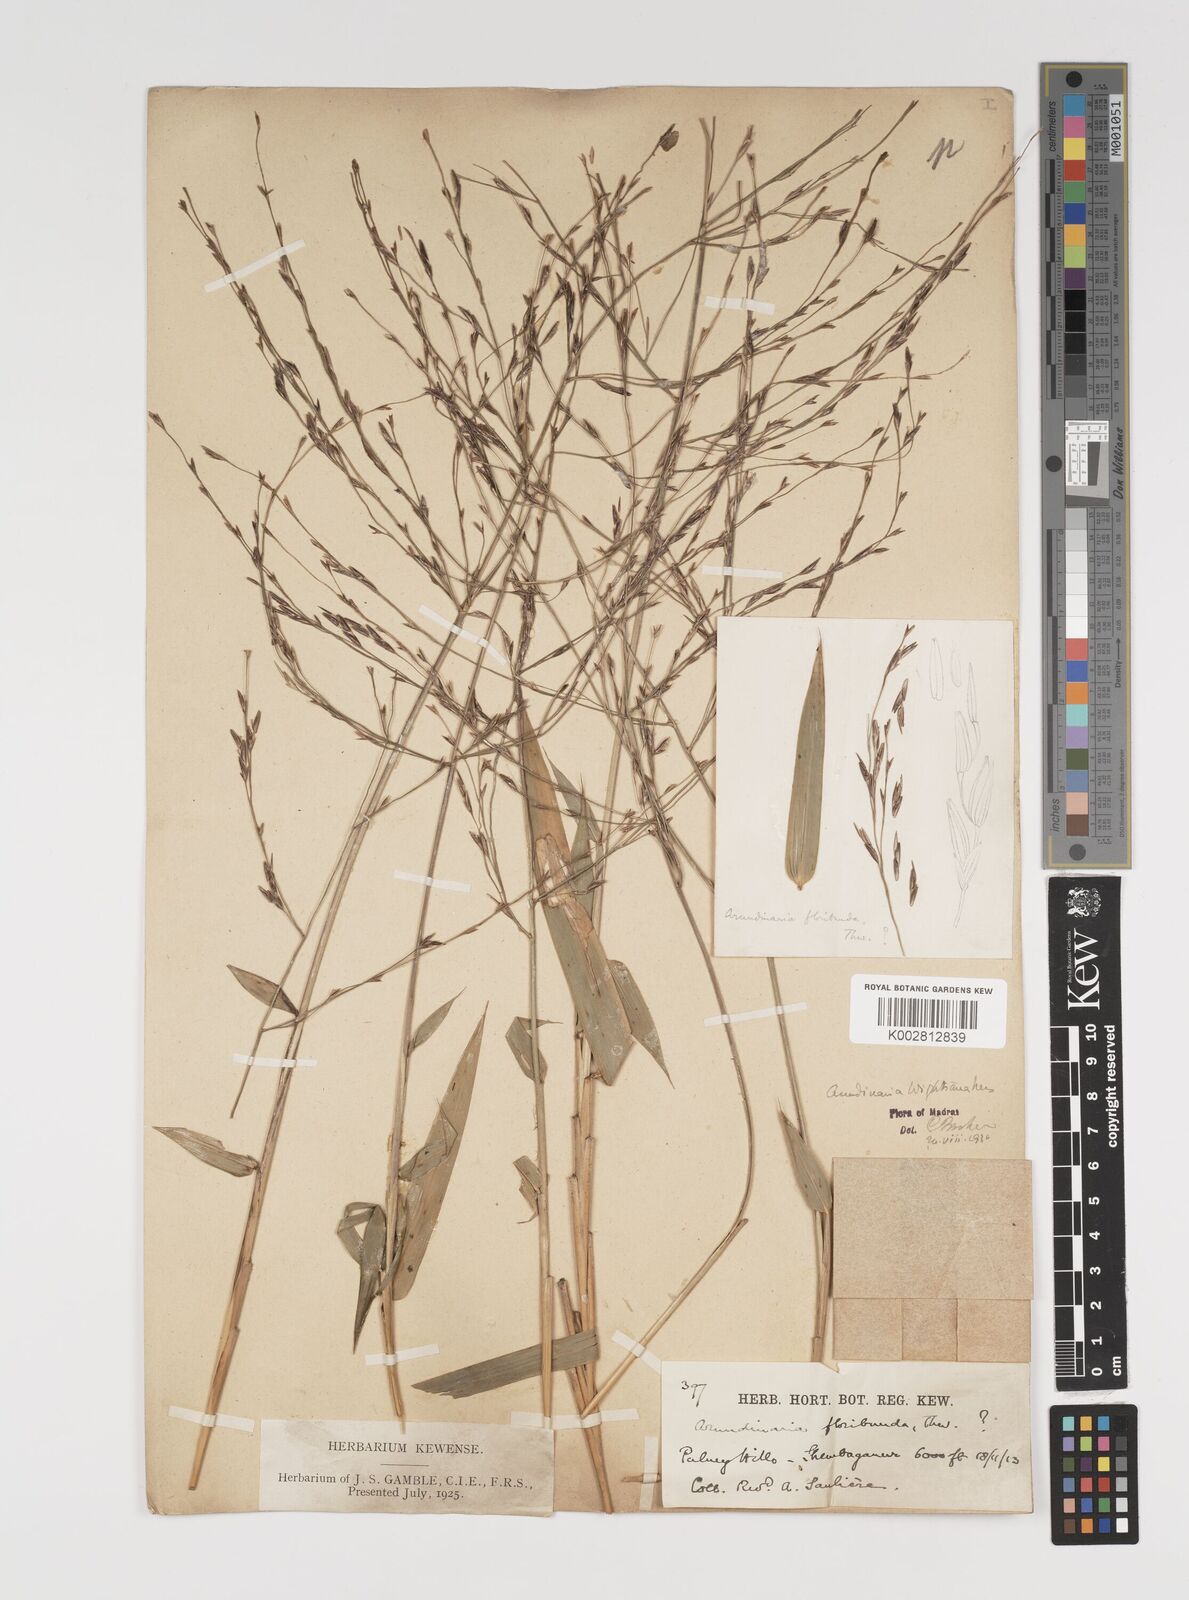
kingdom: Plantae
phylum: Tracheophyta
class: Liliopsida
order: Poales
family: Poaceae
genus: Kuruna
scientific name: Kuruna walkeriana
